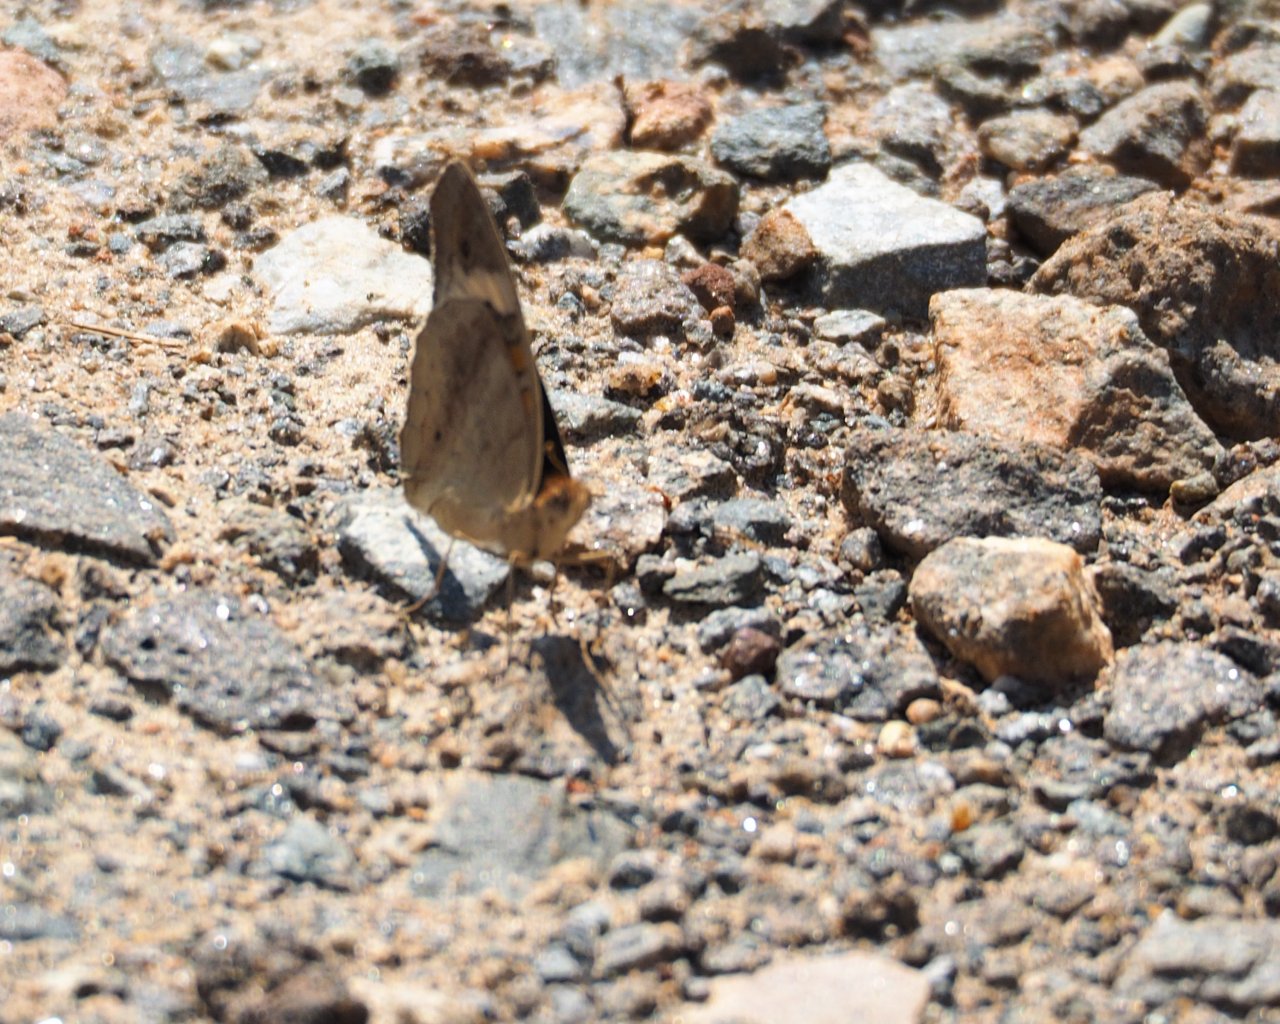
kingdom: Animalia
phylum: Arthropoda
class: Insecta
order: Lepidoptera
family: Nymphalidae
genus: Junonia
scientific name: Junonia coenia
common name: Common Buckeye
